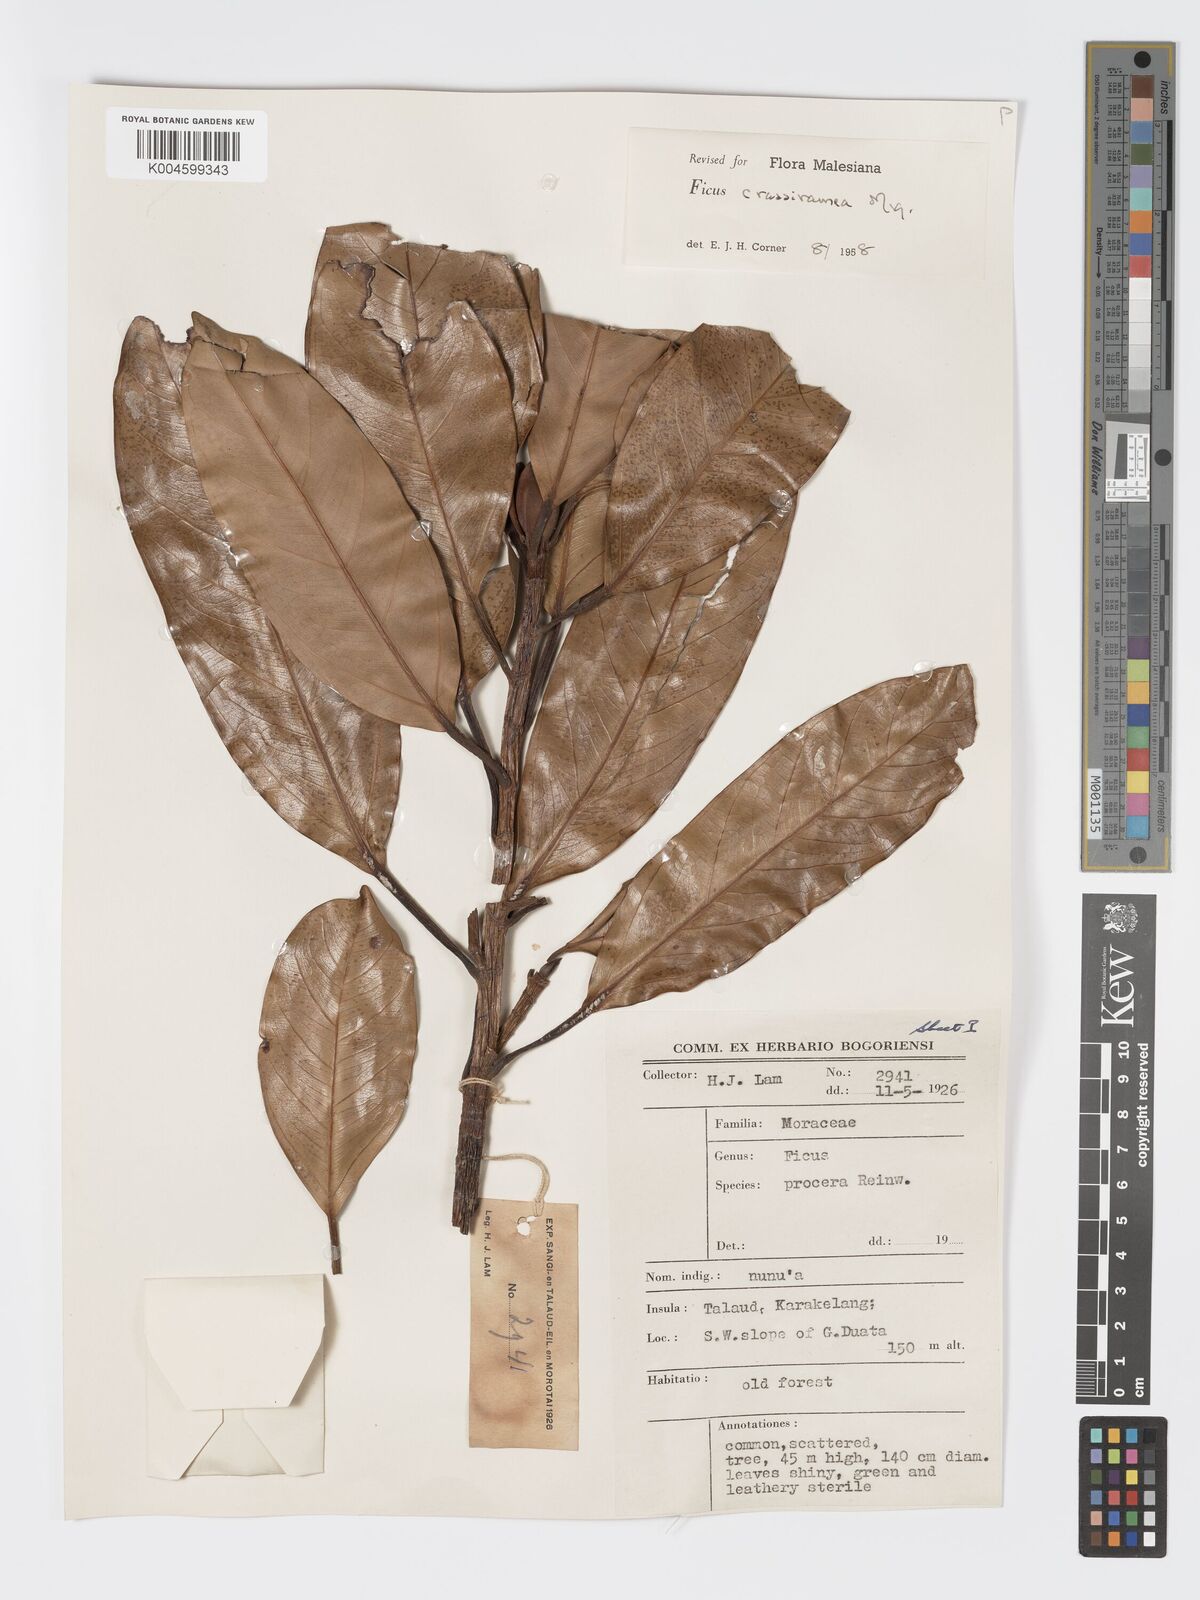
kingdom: Plantae
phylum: Tracheophyta
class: Magnoliopsida
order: Rosales
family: Moraceae
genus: Ficus
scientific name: Ficus crassiramea
